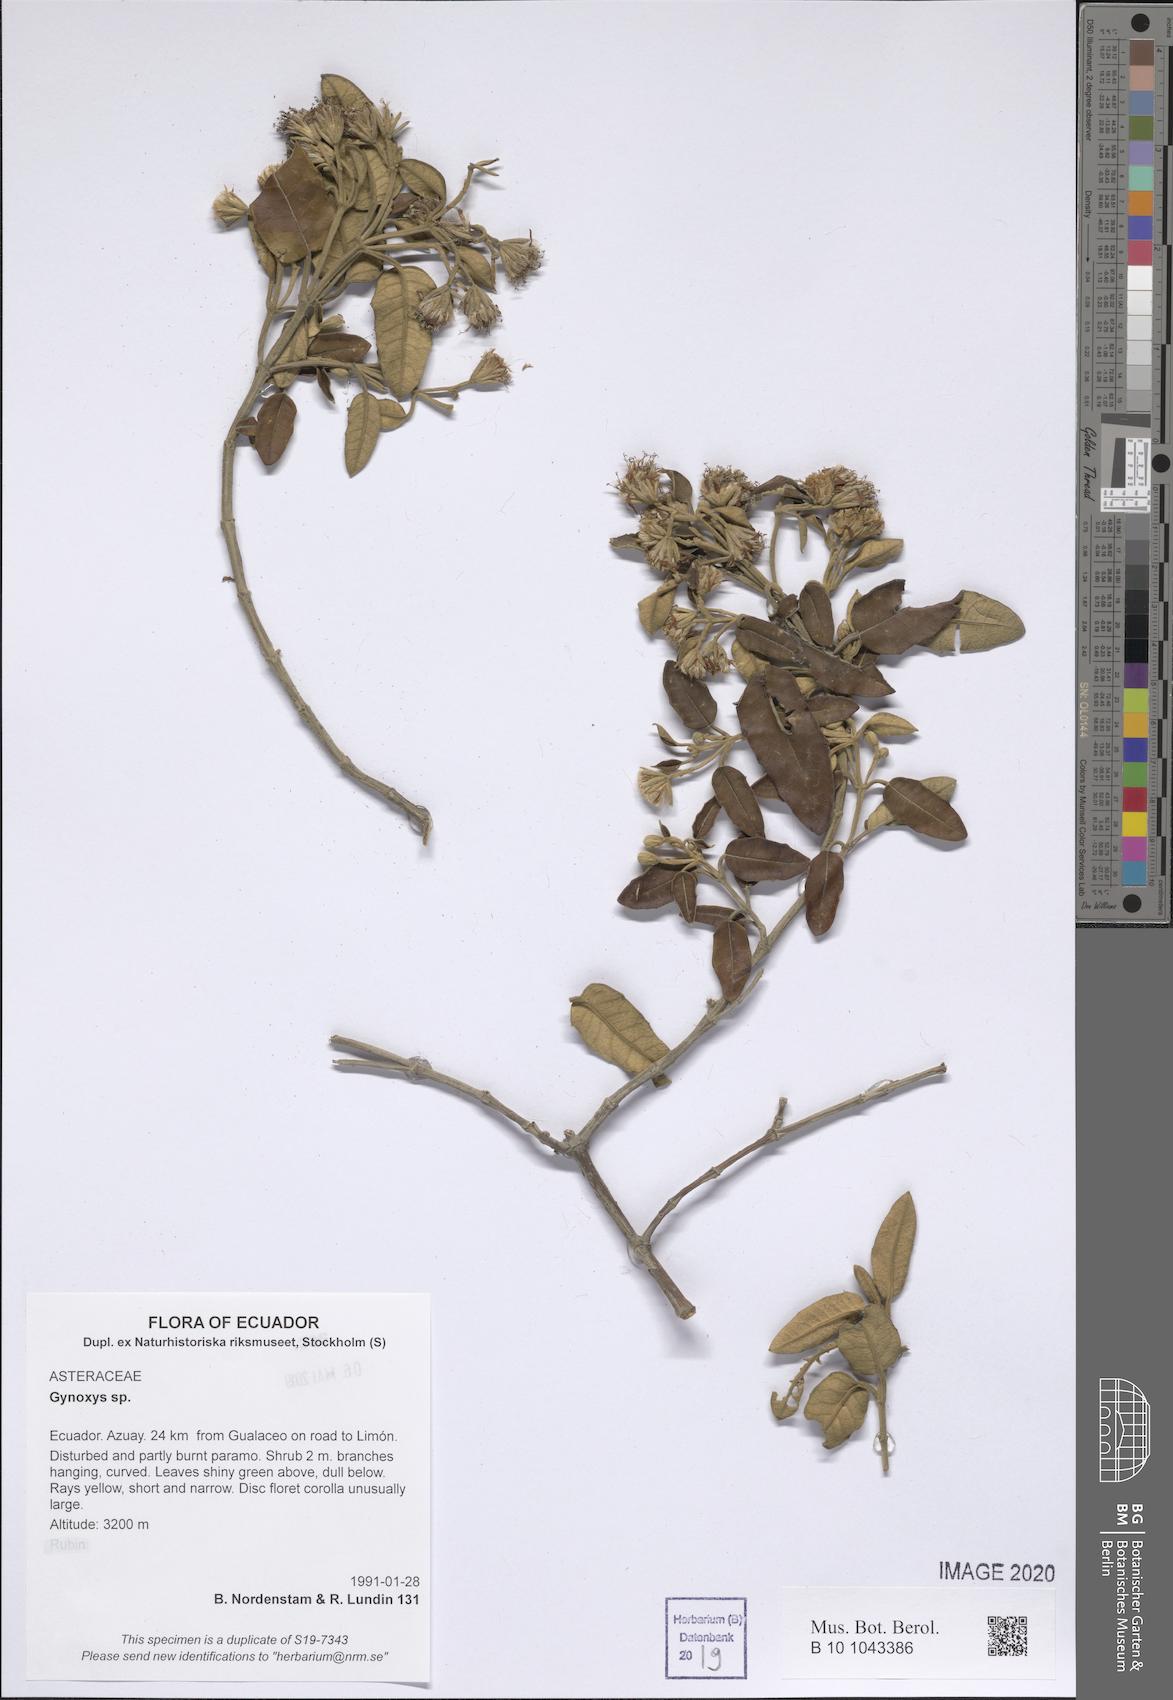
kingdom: Plantae
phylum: Tracheophyta
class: Magnoliopsida
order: Asterales
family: Asteraceae
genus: Gynoxys
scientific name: Gynoxys
